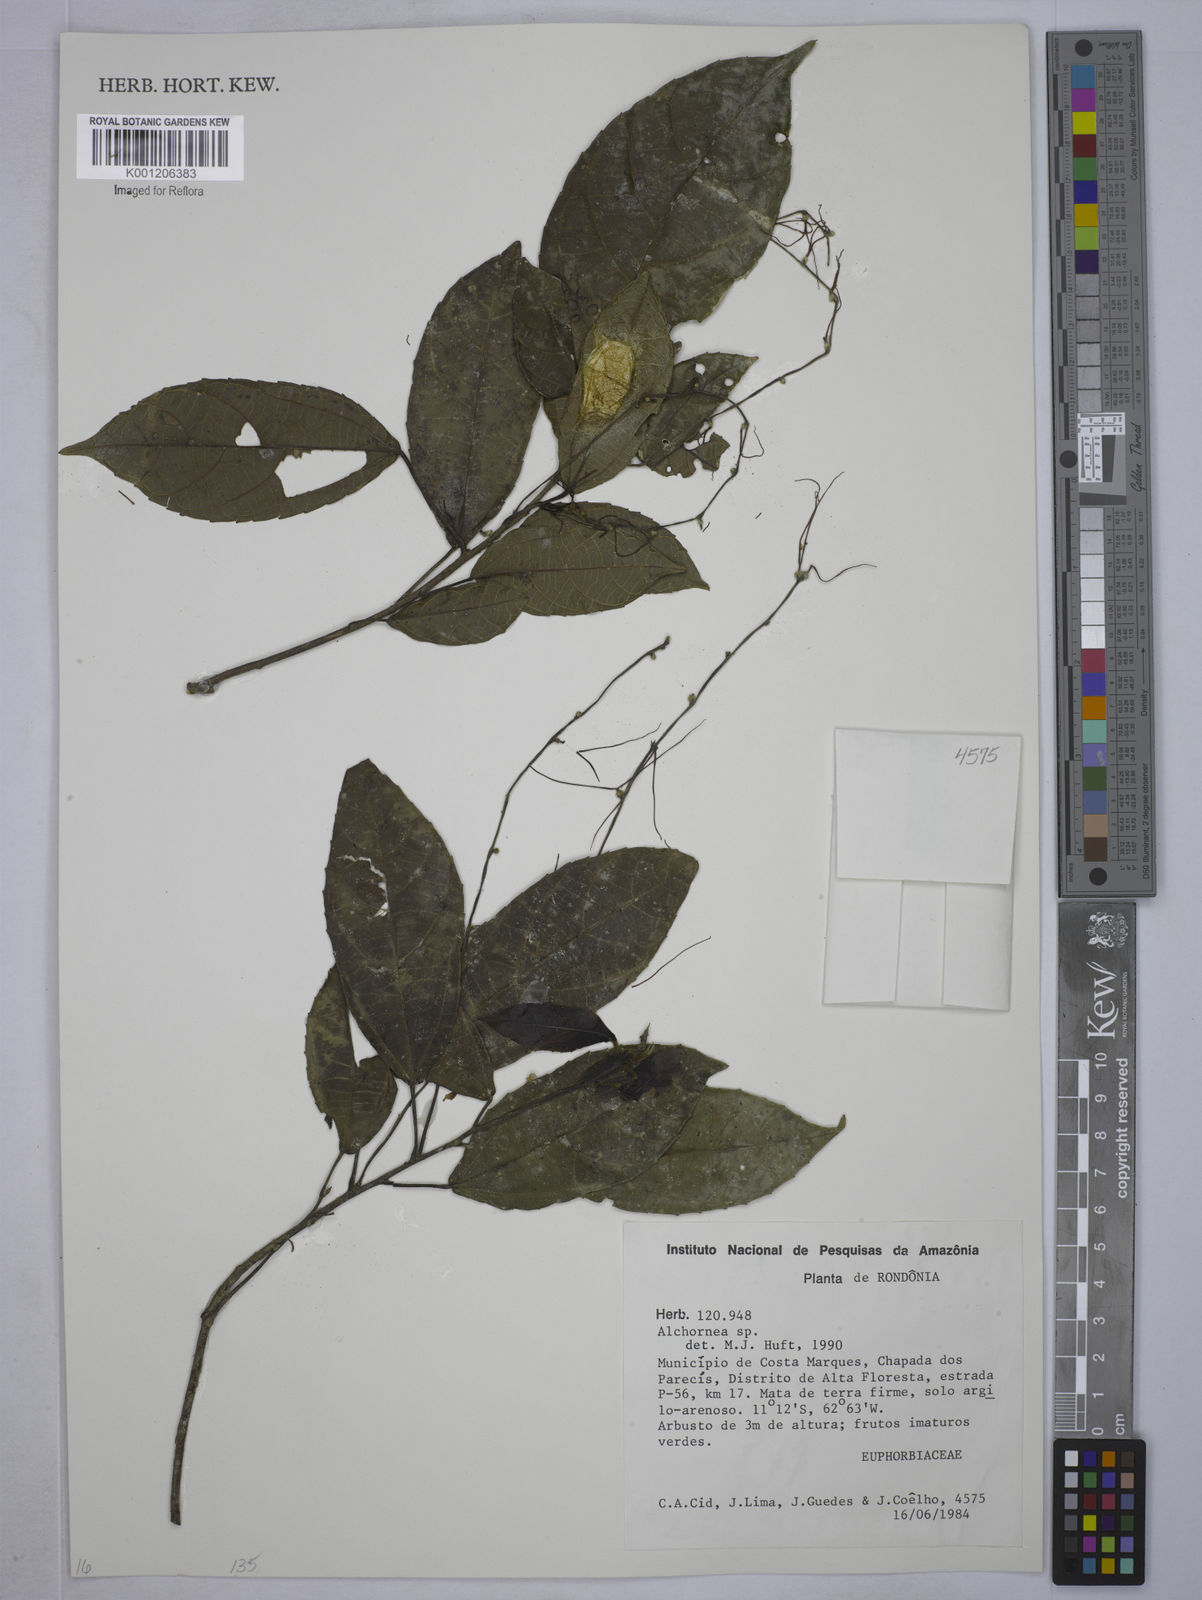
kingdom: Plantae
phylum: Tracheophyta
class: Magnoliopsida
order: Malpighiales
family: Euphorbiaceae
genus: Alchornea
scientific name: Alchornea
